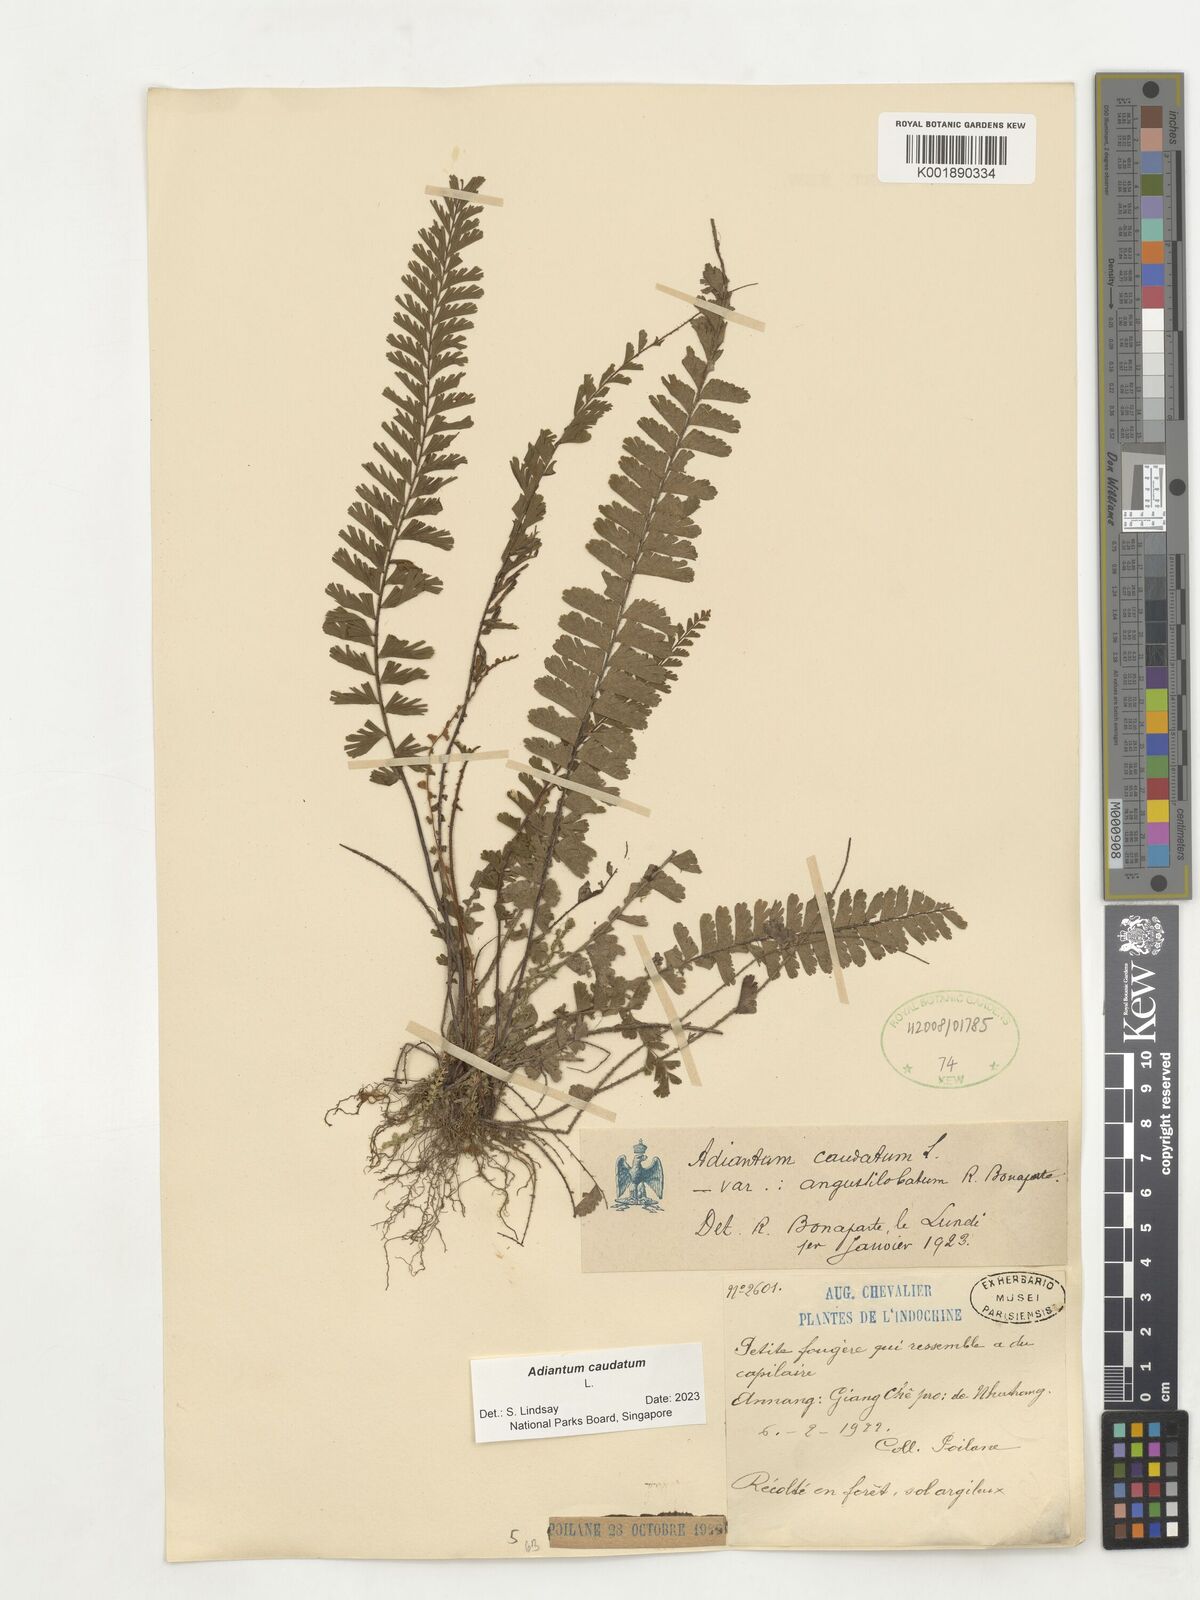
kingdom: Plantae
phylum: Tracheophyta
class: Polypodiopsida
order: Polypodiales
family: Pteridaceae
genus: Adiantum
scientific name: Adiantum caudatum
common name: Tailed maidenhair
